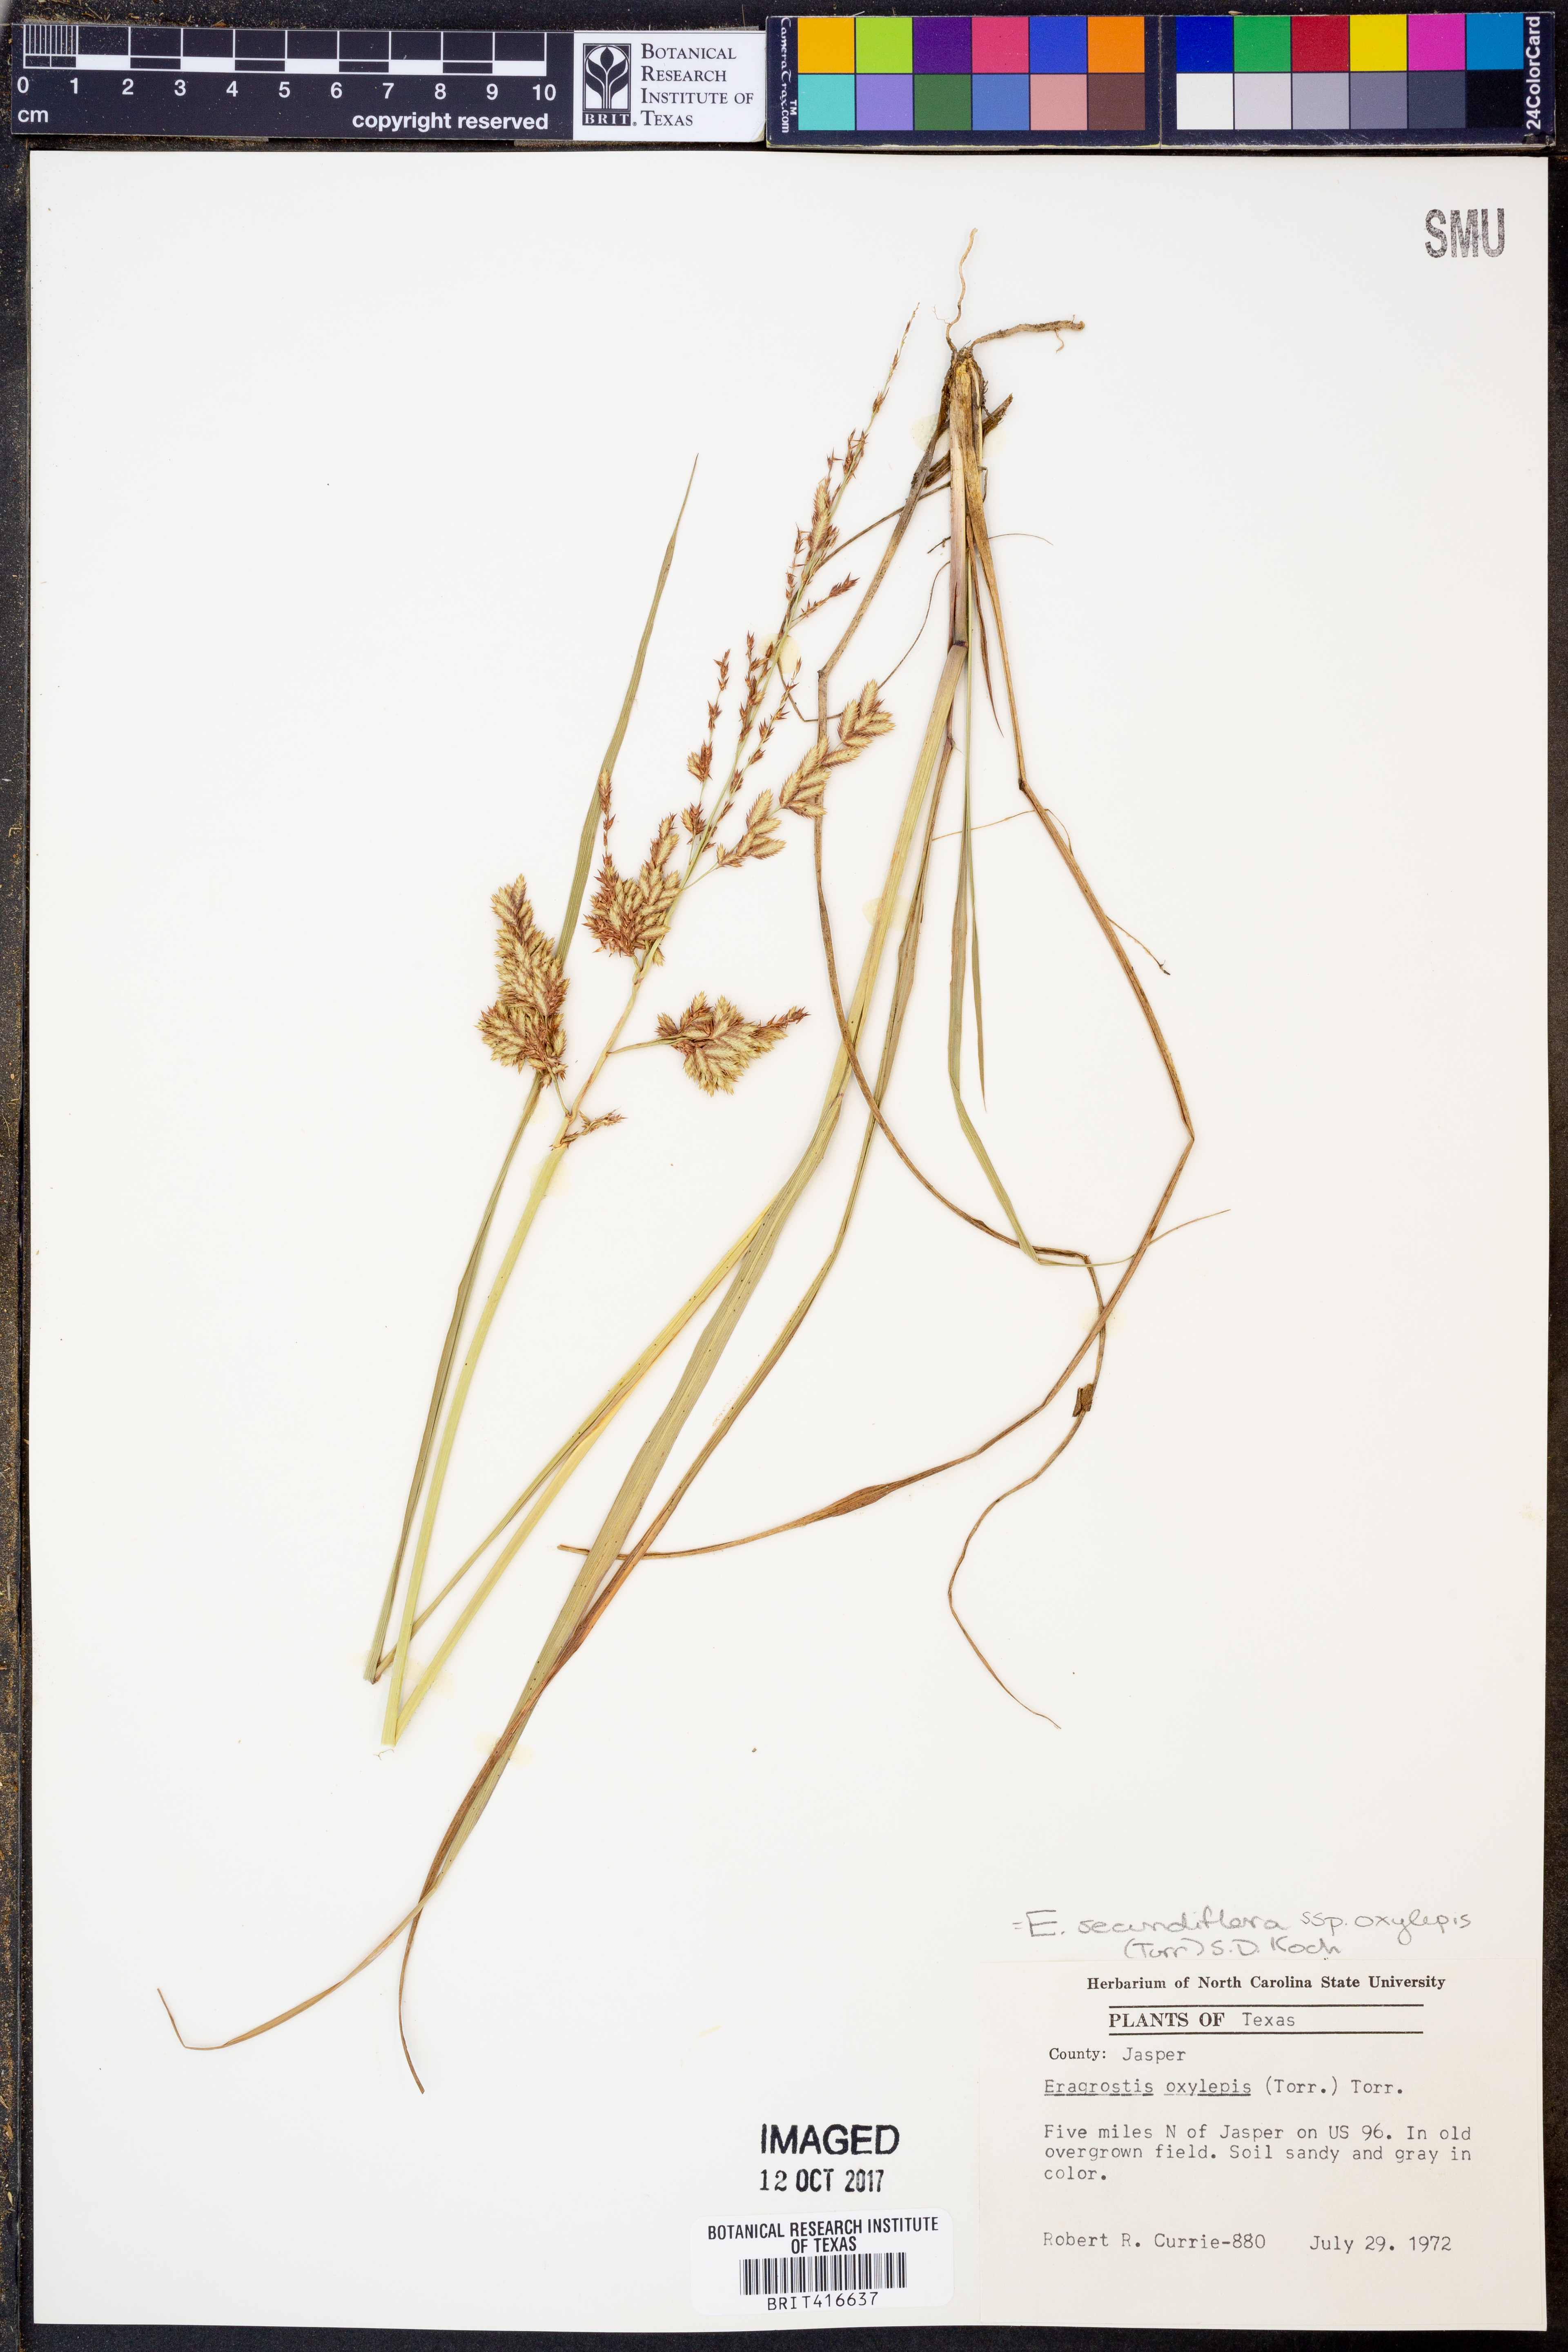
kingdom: Plantae
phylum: Tracheophyta
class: Liliopsida
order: Poales
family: Poaceae
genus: Eragrostis
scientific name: Eragrostis secundiflora
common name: Red love grass
